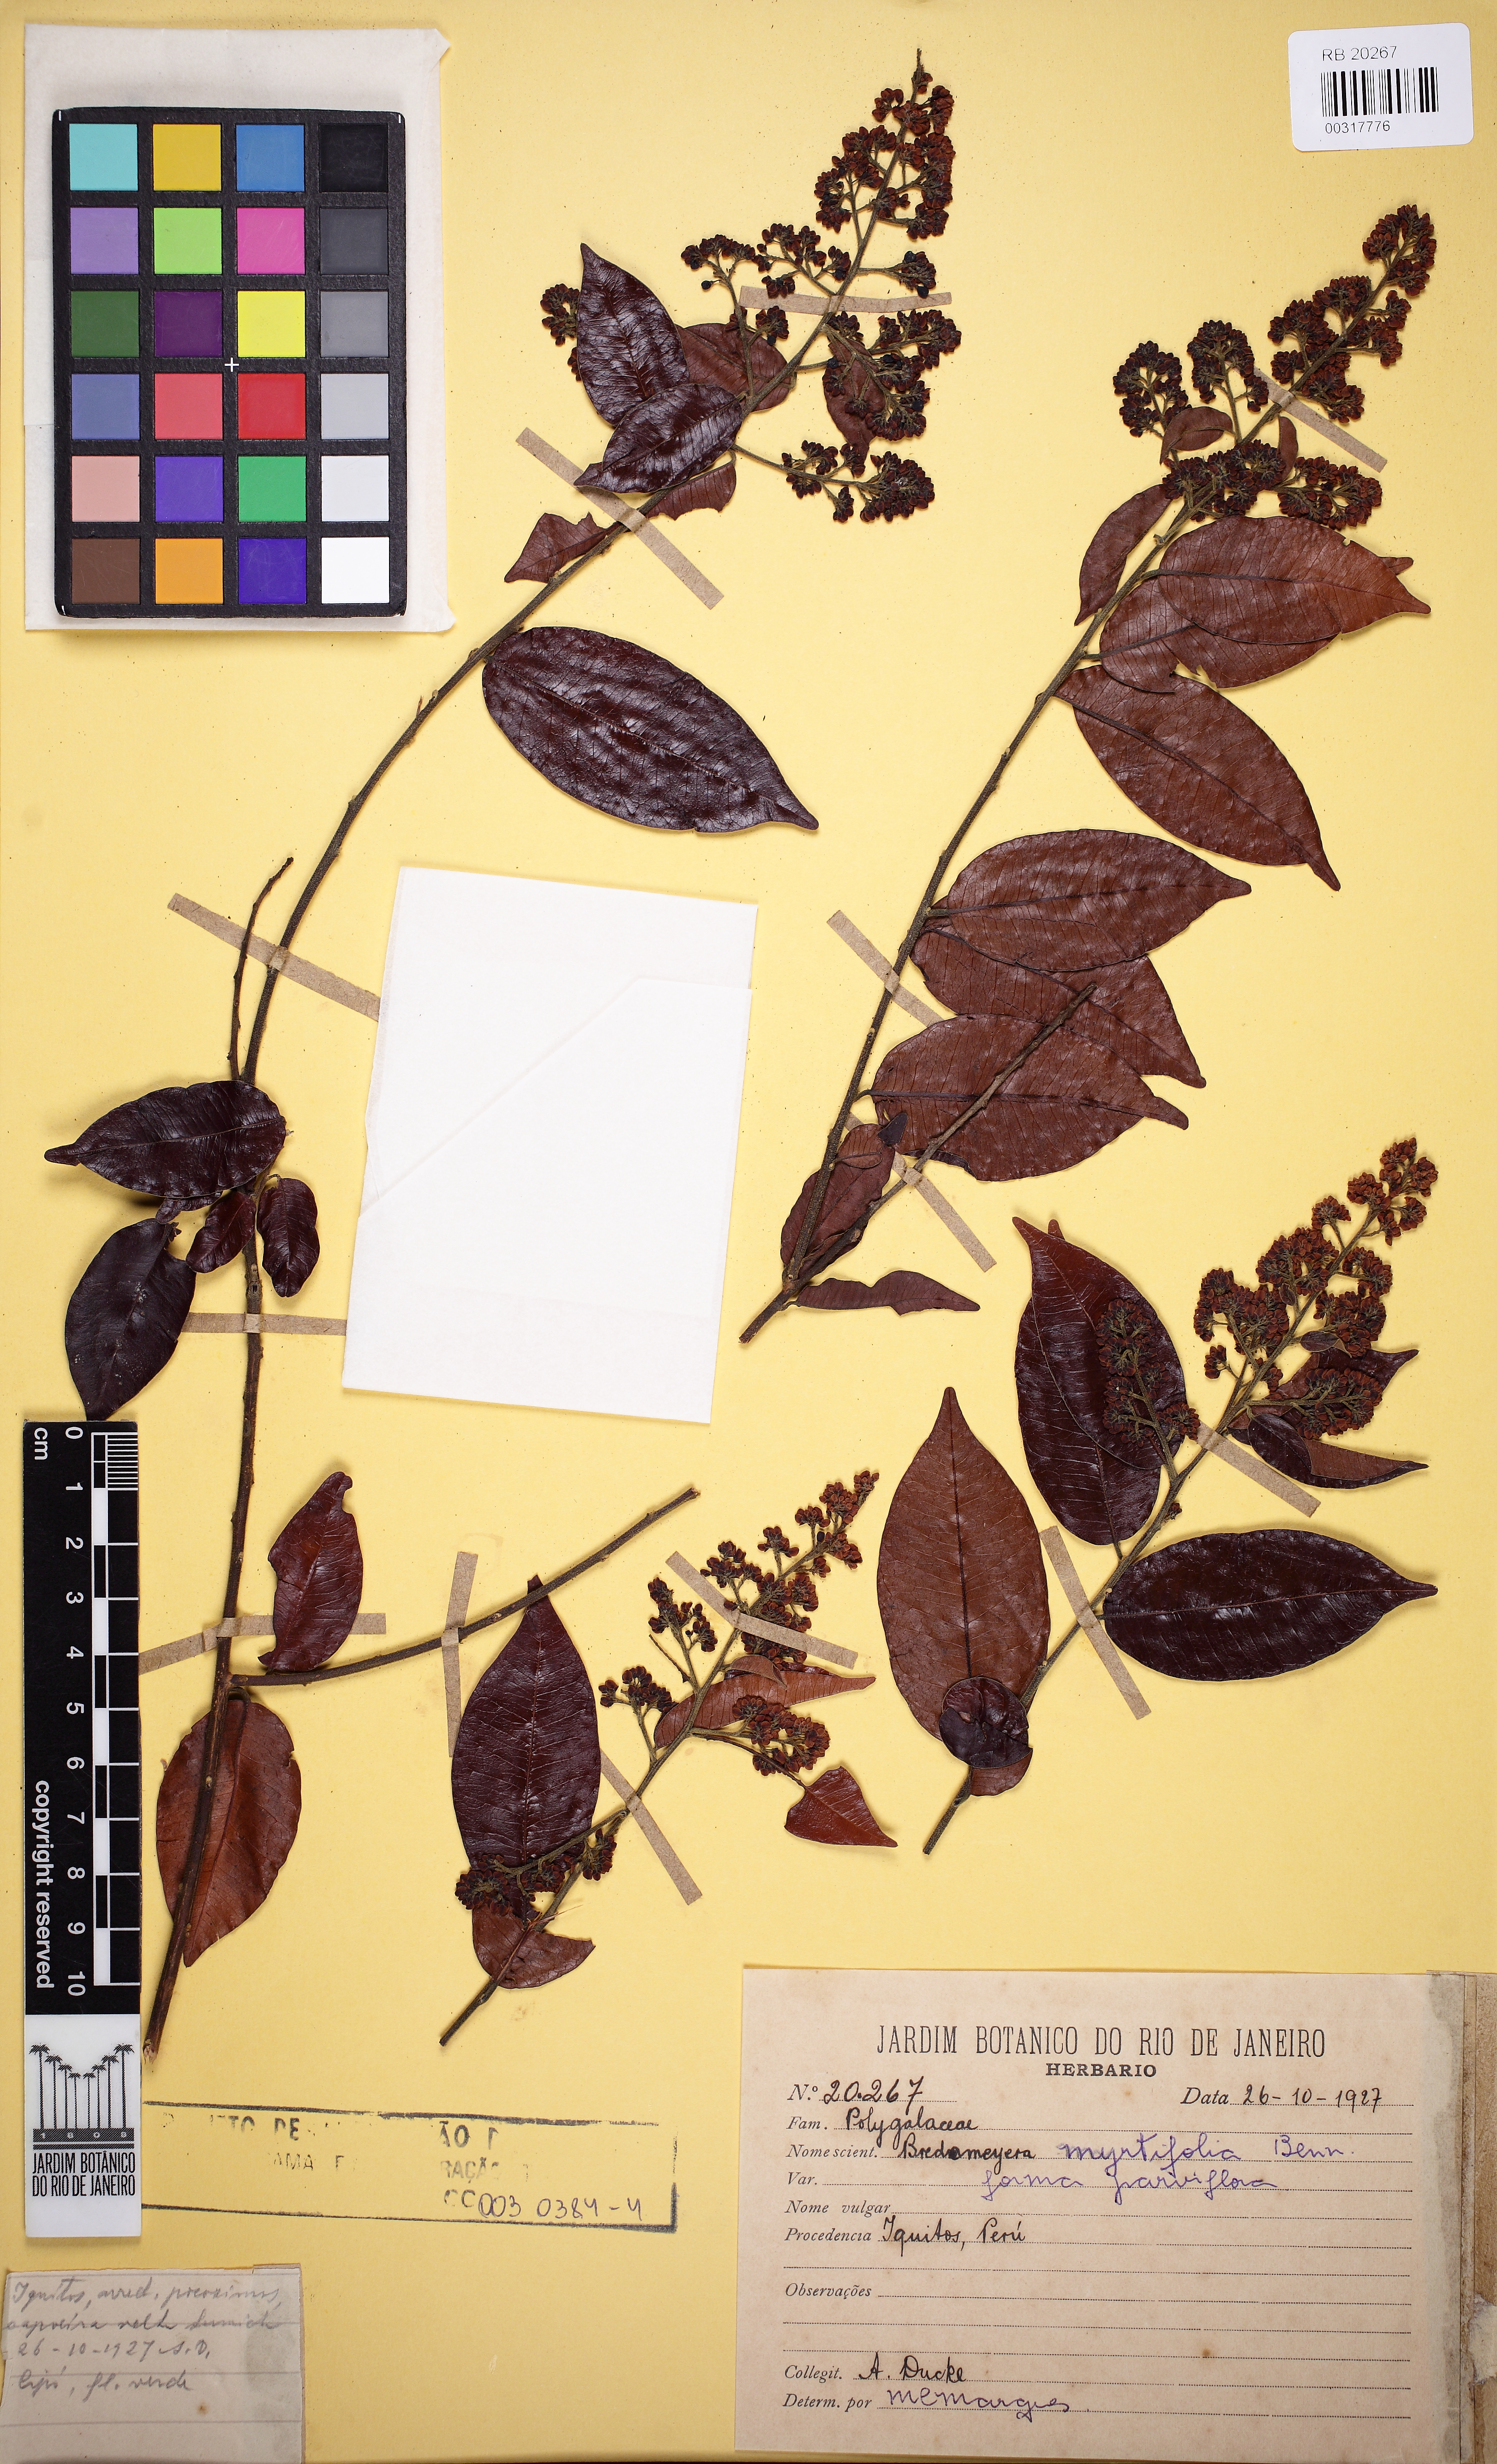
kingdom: Plantae
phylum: Tracheophyta
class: Magnoliopsida
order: Fabales
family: Polygalaceae
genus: Bredemeyera
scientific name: Bredemeyera myrtifolia
